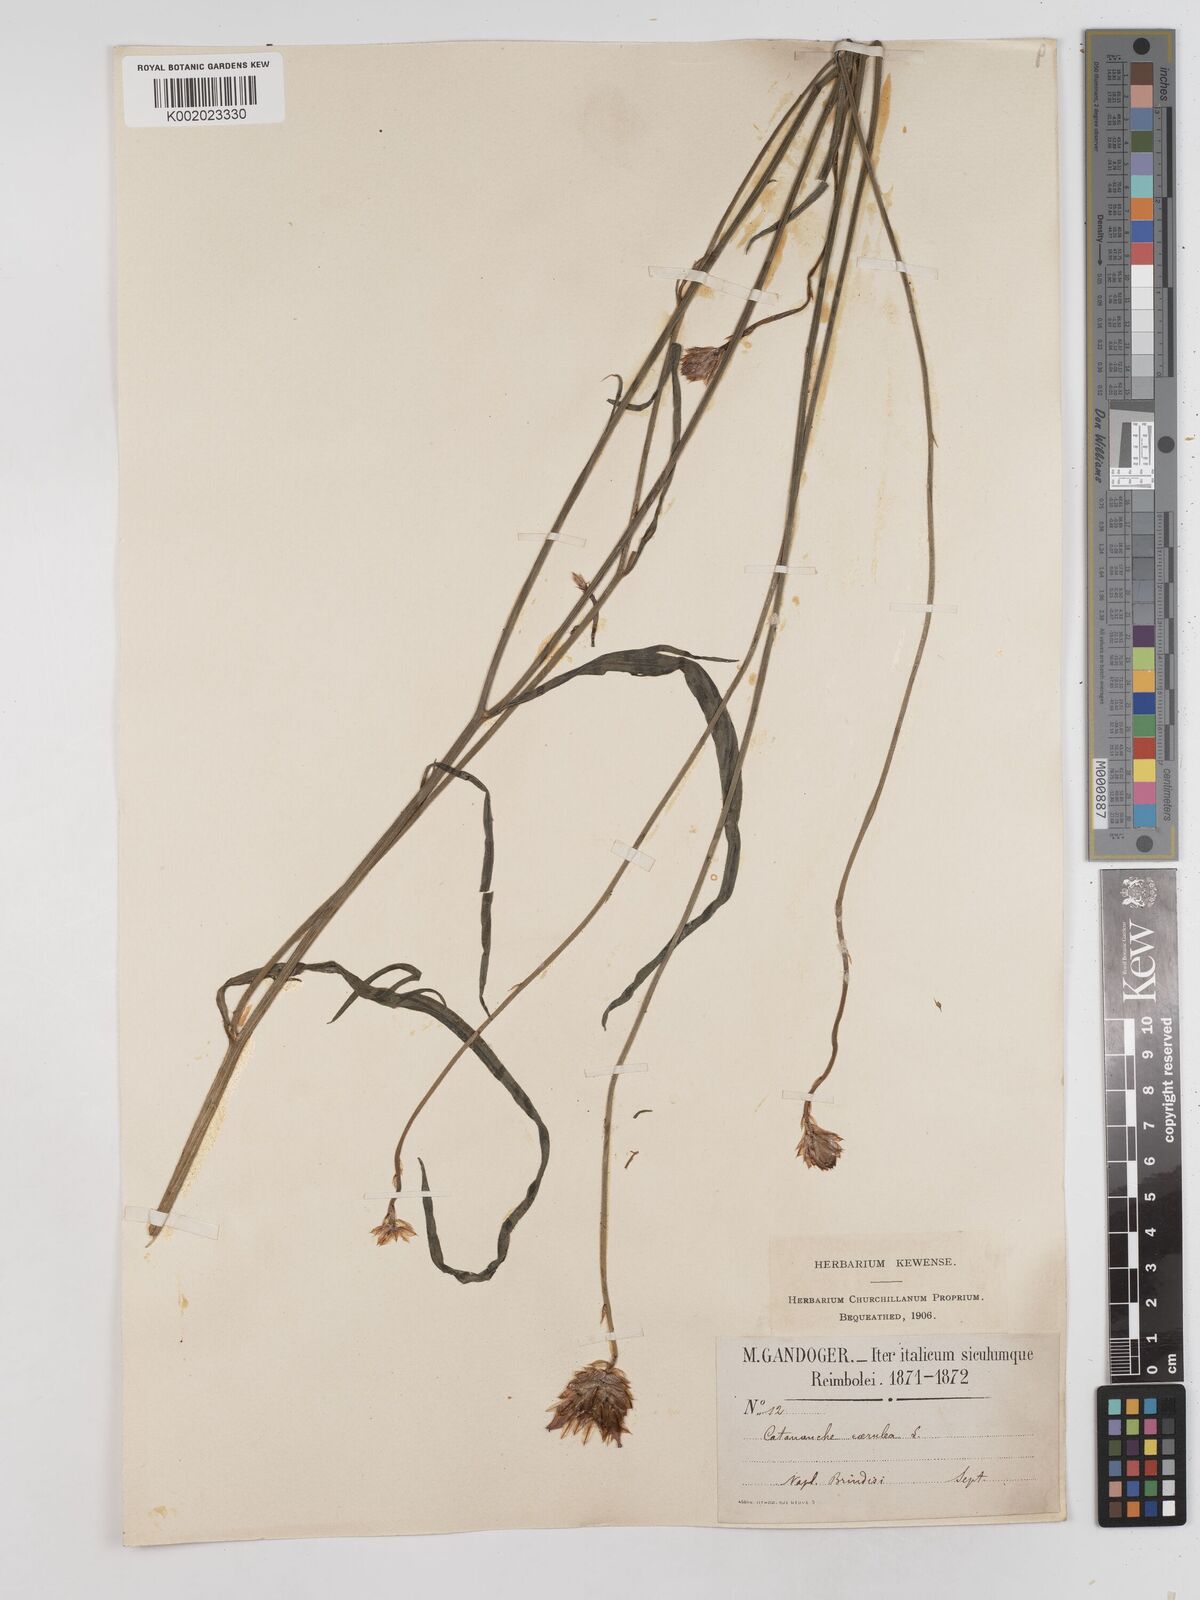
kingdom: Plantae
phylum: Tracheophyta
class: Magnoliopsida
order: Asterales
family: Asteraceae
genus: Catananche
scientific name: Catananche caerulea
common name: Blue cupidone
